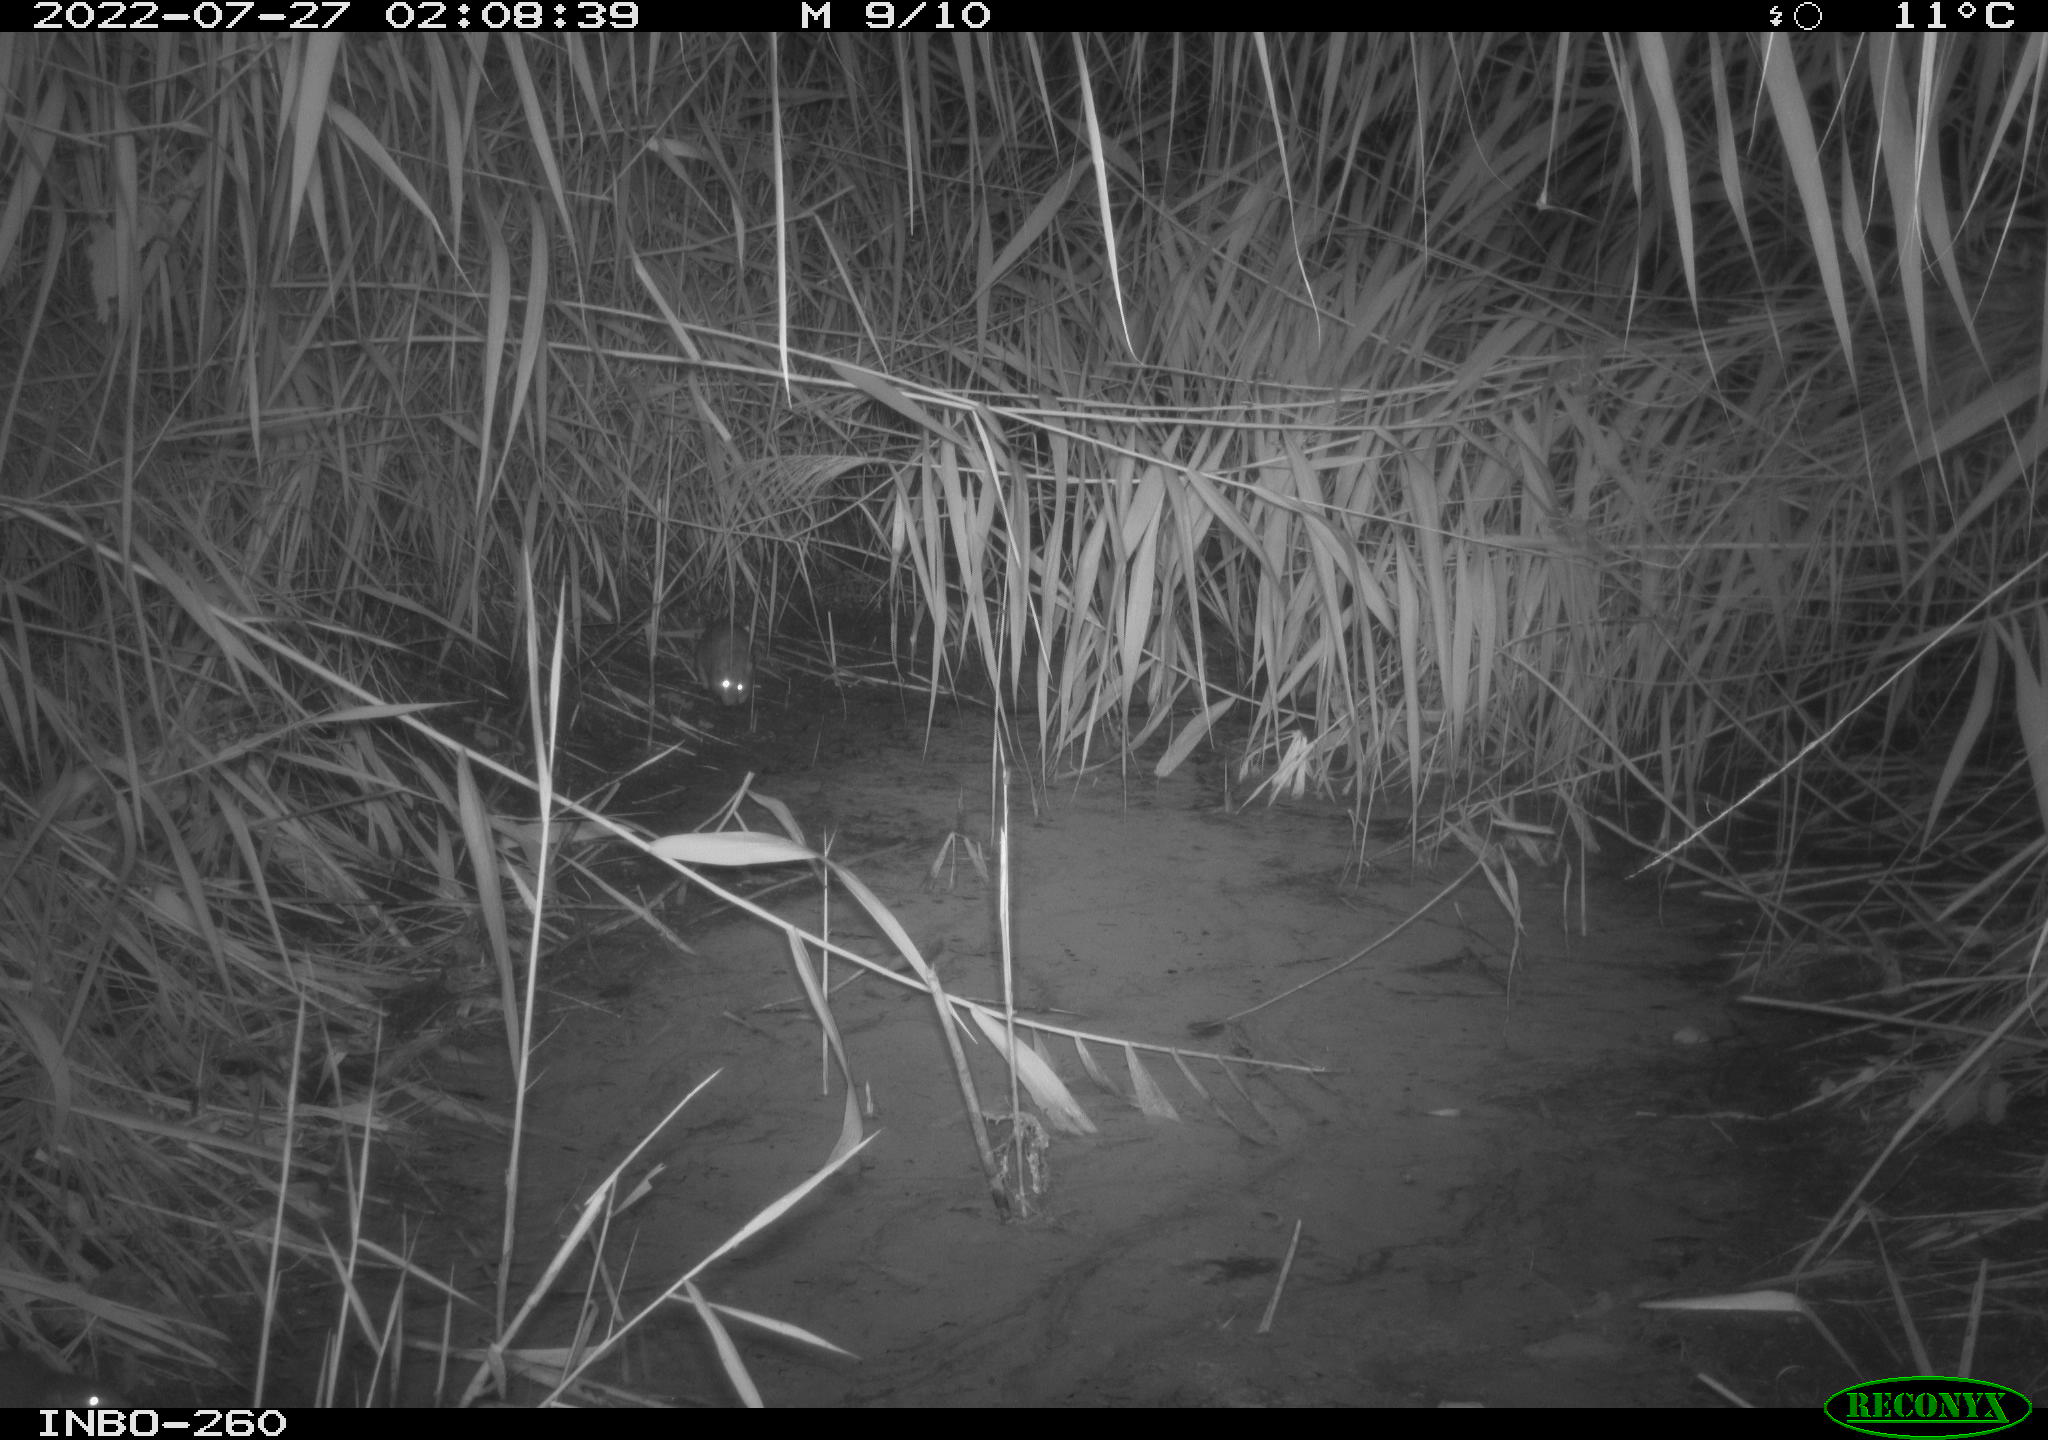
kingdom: Animalia
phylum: Chordata
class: Mammalia
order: Rodentia
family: Muridae
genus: Rattus
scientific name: Rattus norvegicus
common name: Brown rat
